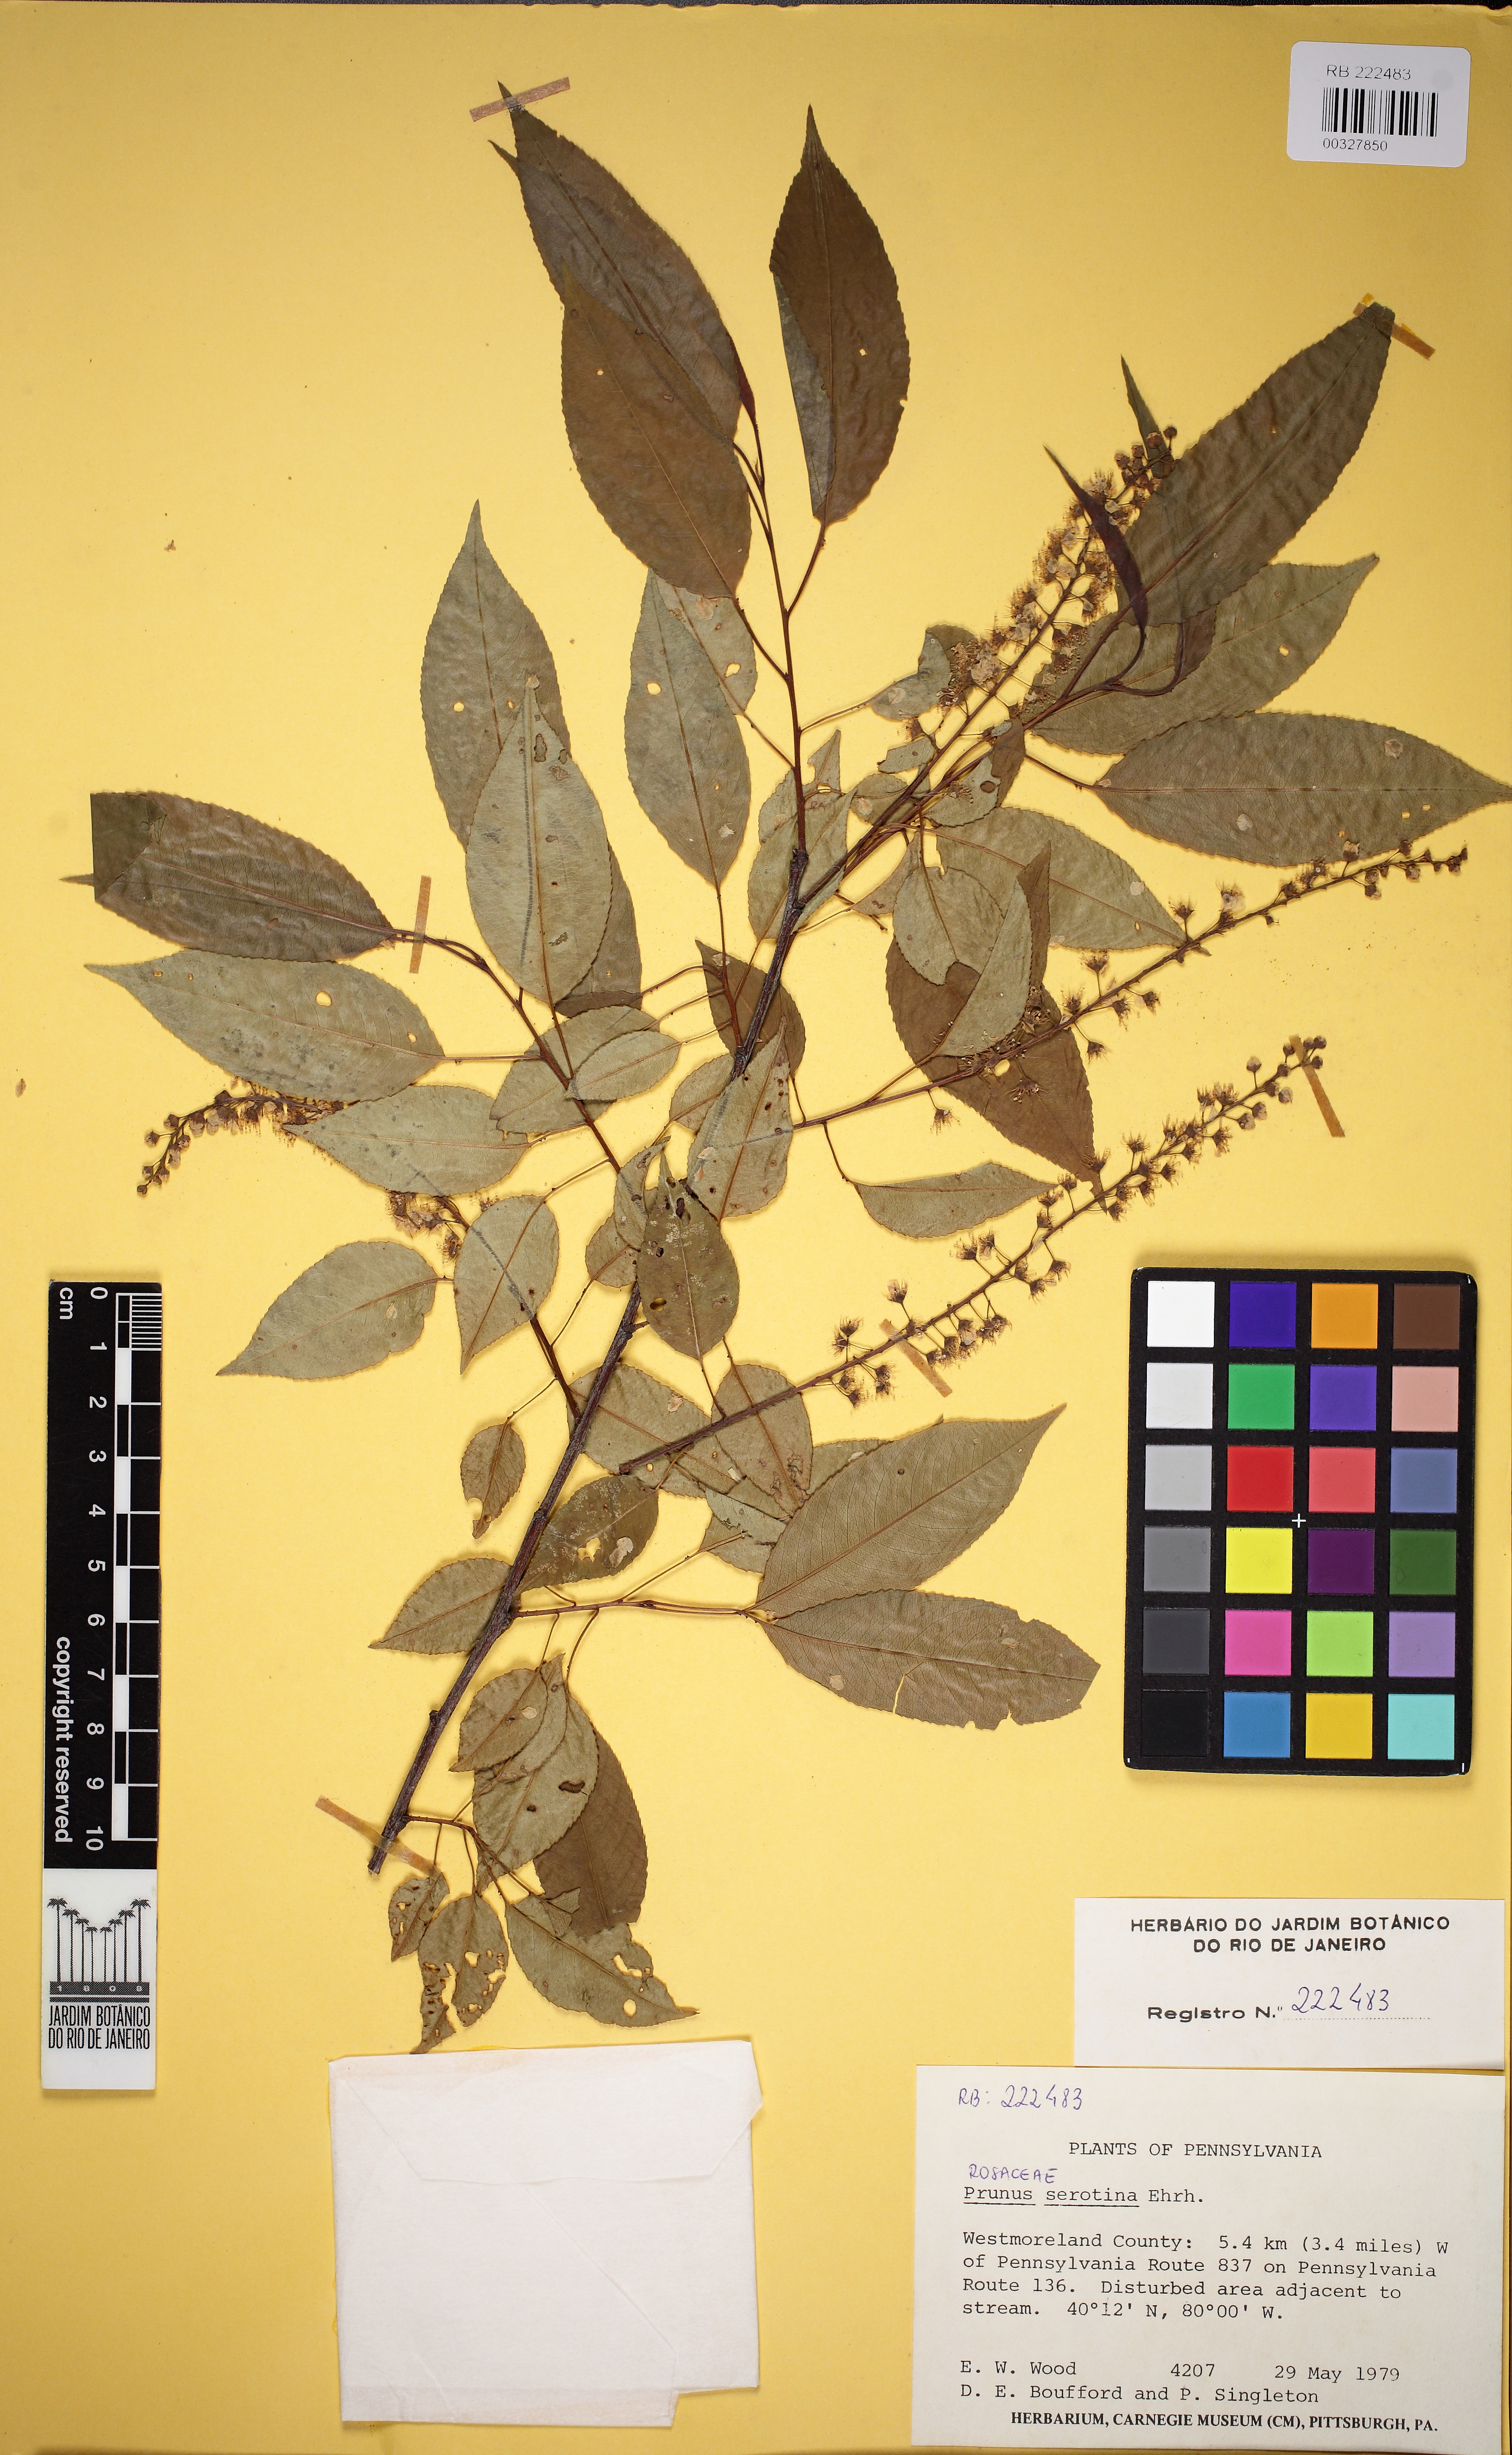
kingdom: Plantae
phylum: Tracheophyta
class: Magnoliopsida
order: Rosales
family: Rosaceae
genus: Prunus
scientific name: Prunus serotina
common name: Black cherry
